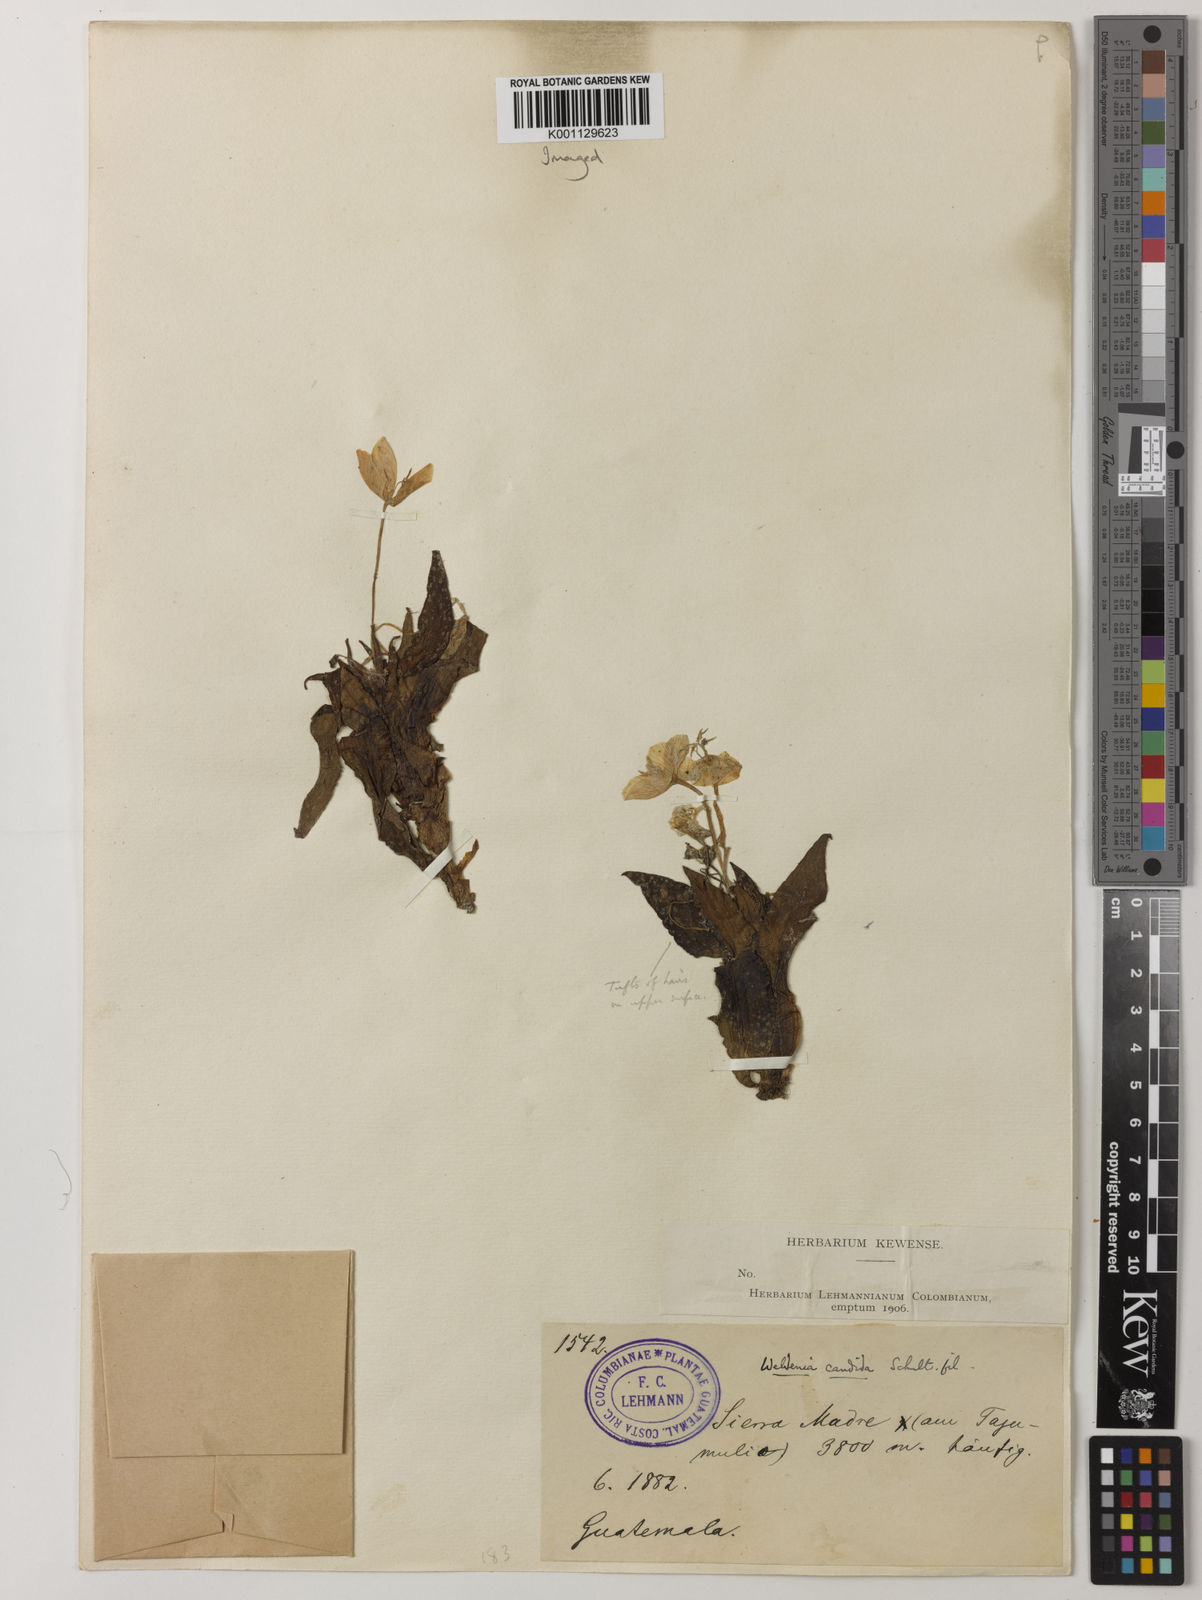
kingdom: Plantae
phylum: Tracheophyta
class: Liliopsida
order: Commelinales
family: Commelinaceae
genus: Weldenia
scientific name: Weldenia candida
